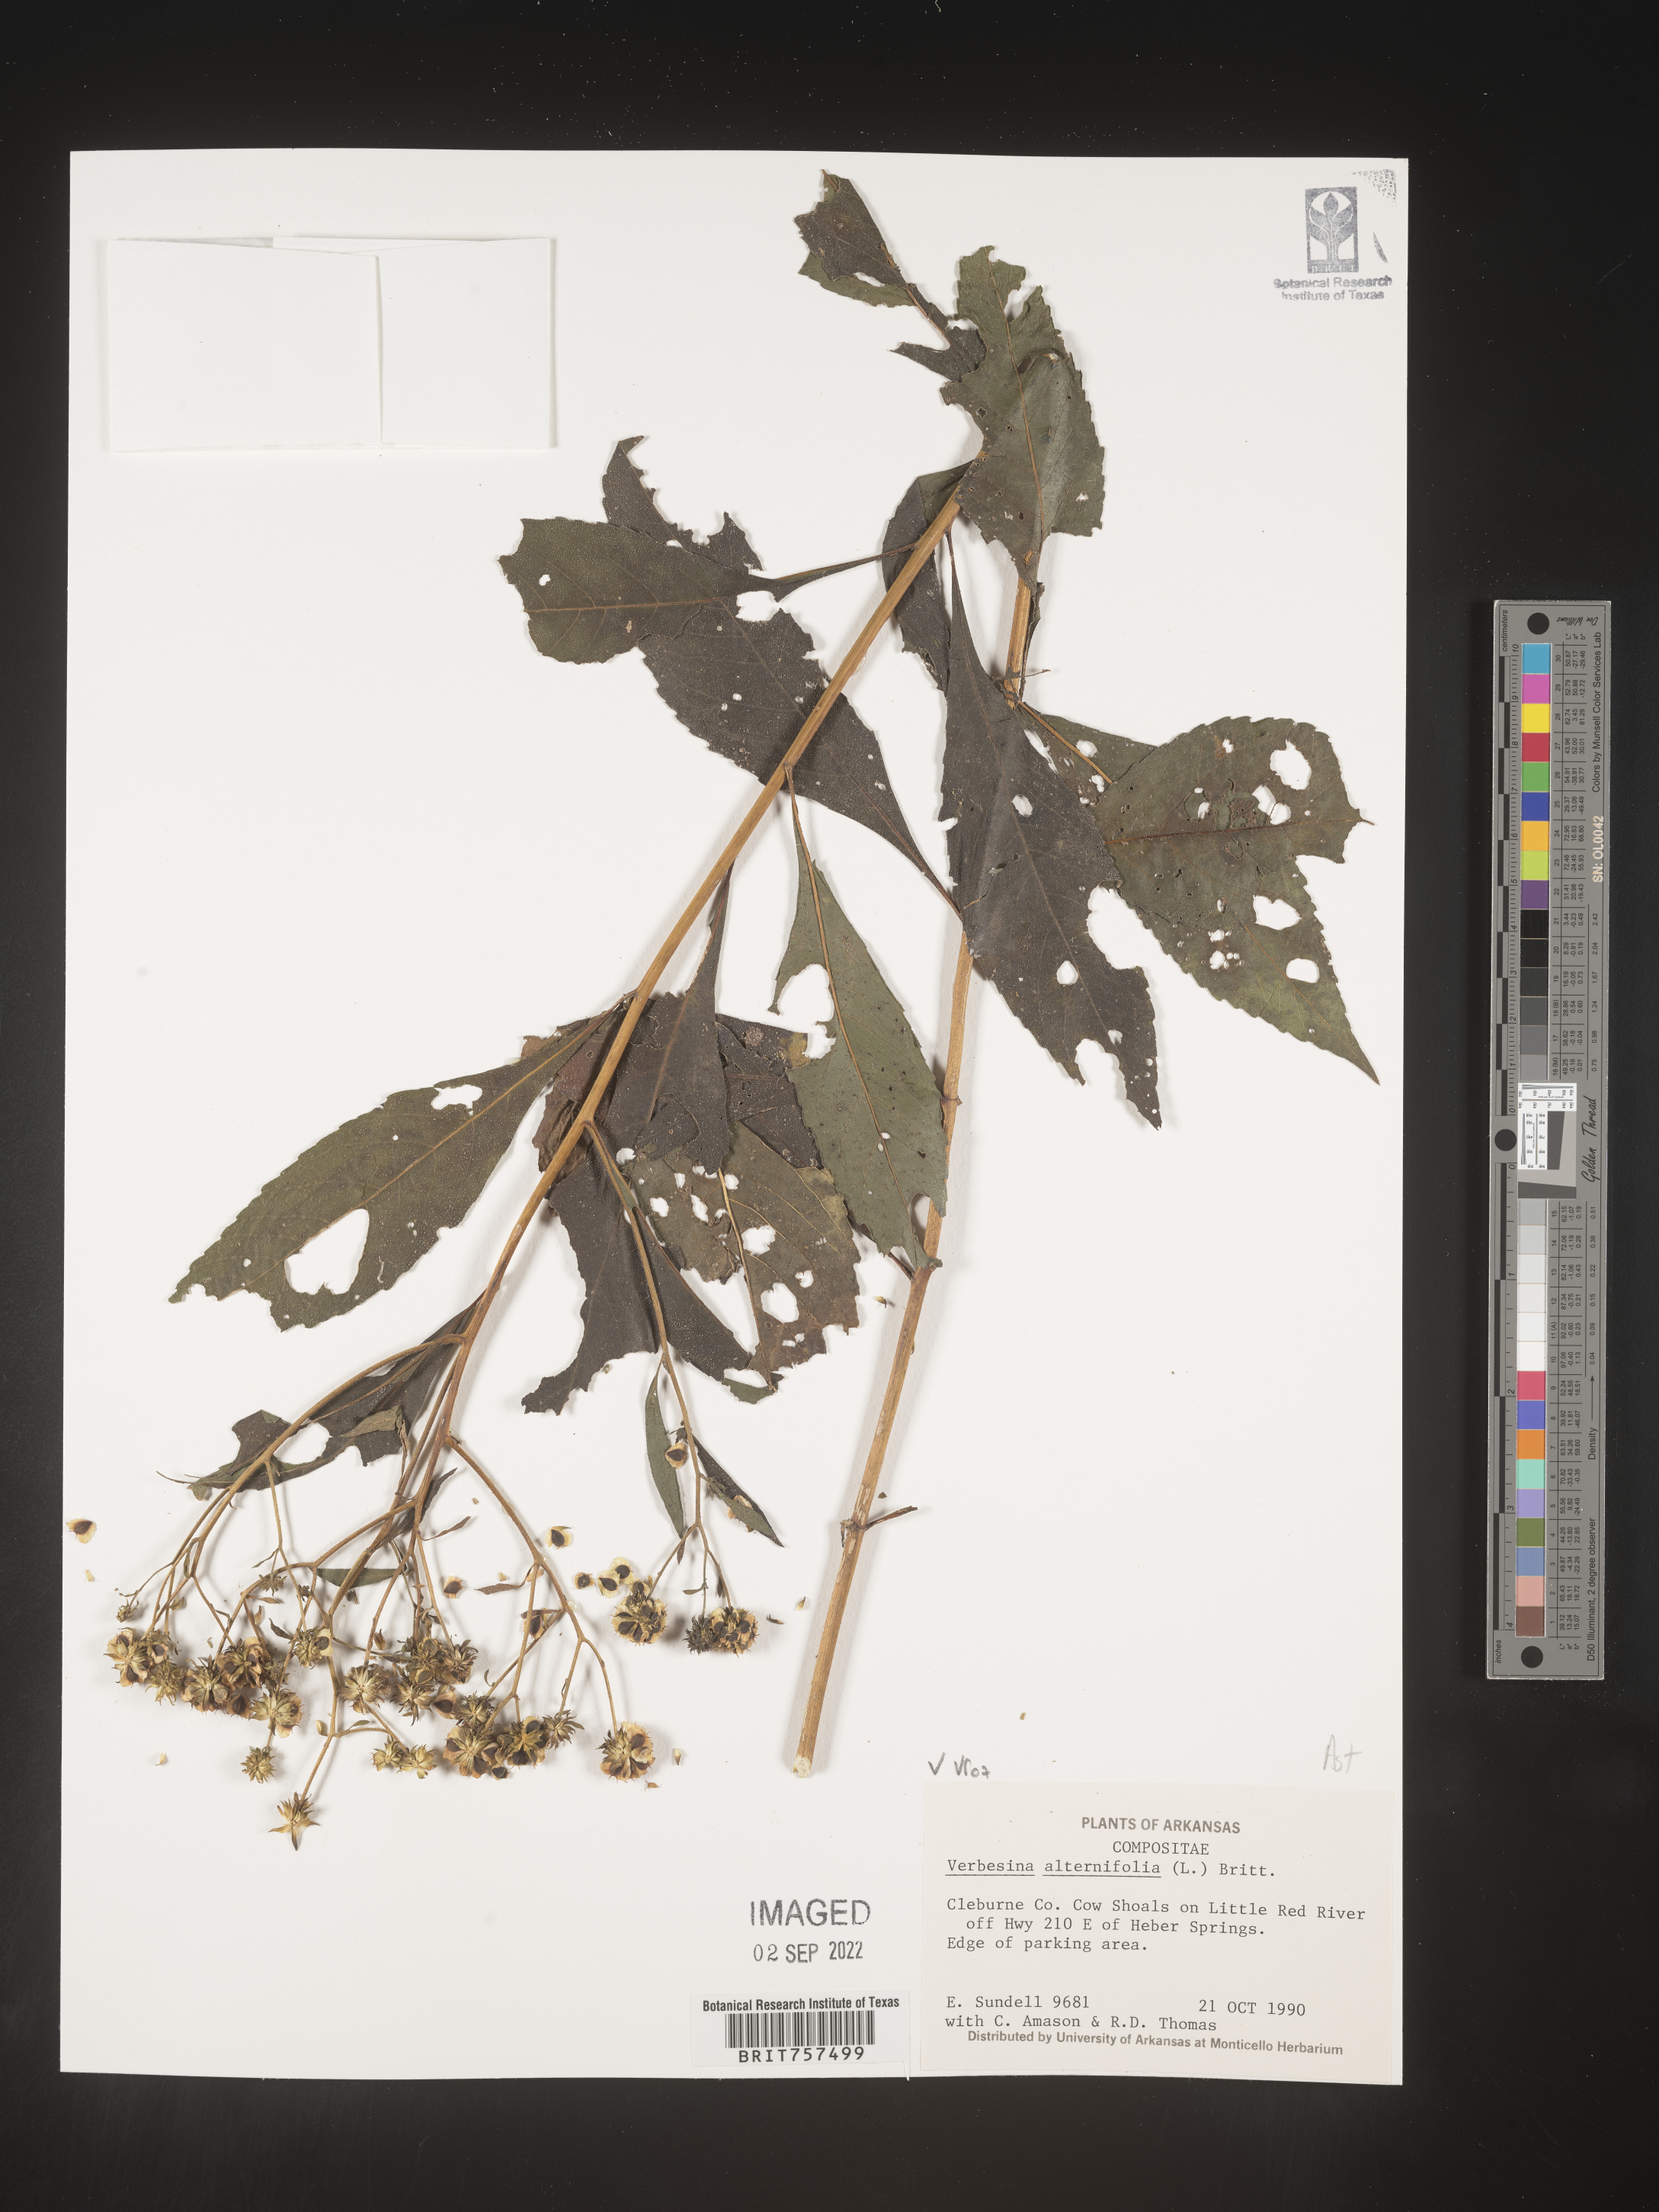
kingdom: Plantae
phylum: Tracheophyta
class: Magnoliopsida
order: Asterales
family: Asteraceae
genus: Verbesina
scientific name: Verbesina alternifolia
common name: Wingstem
